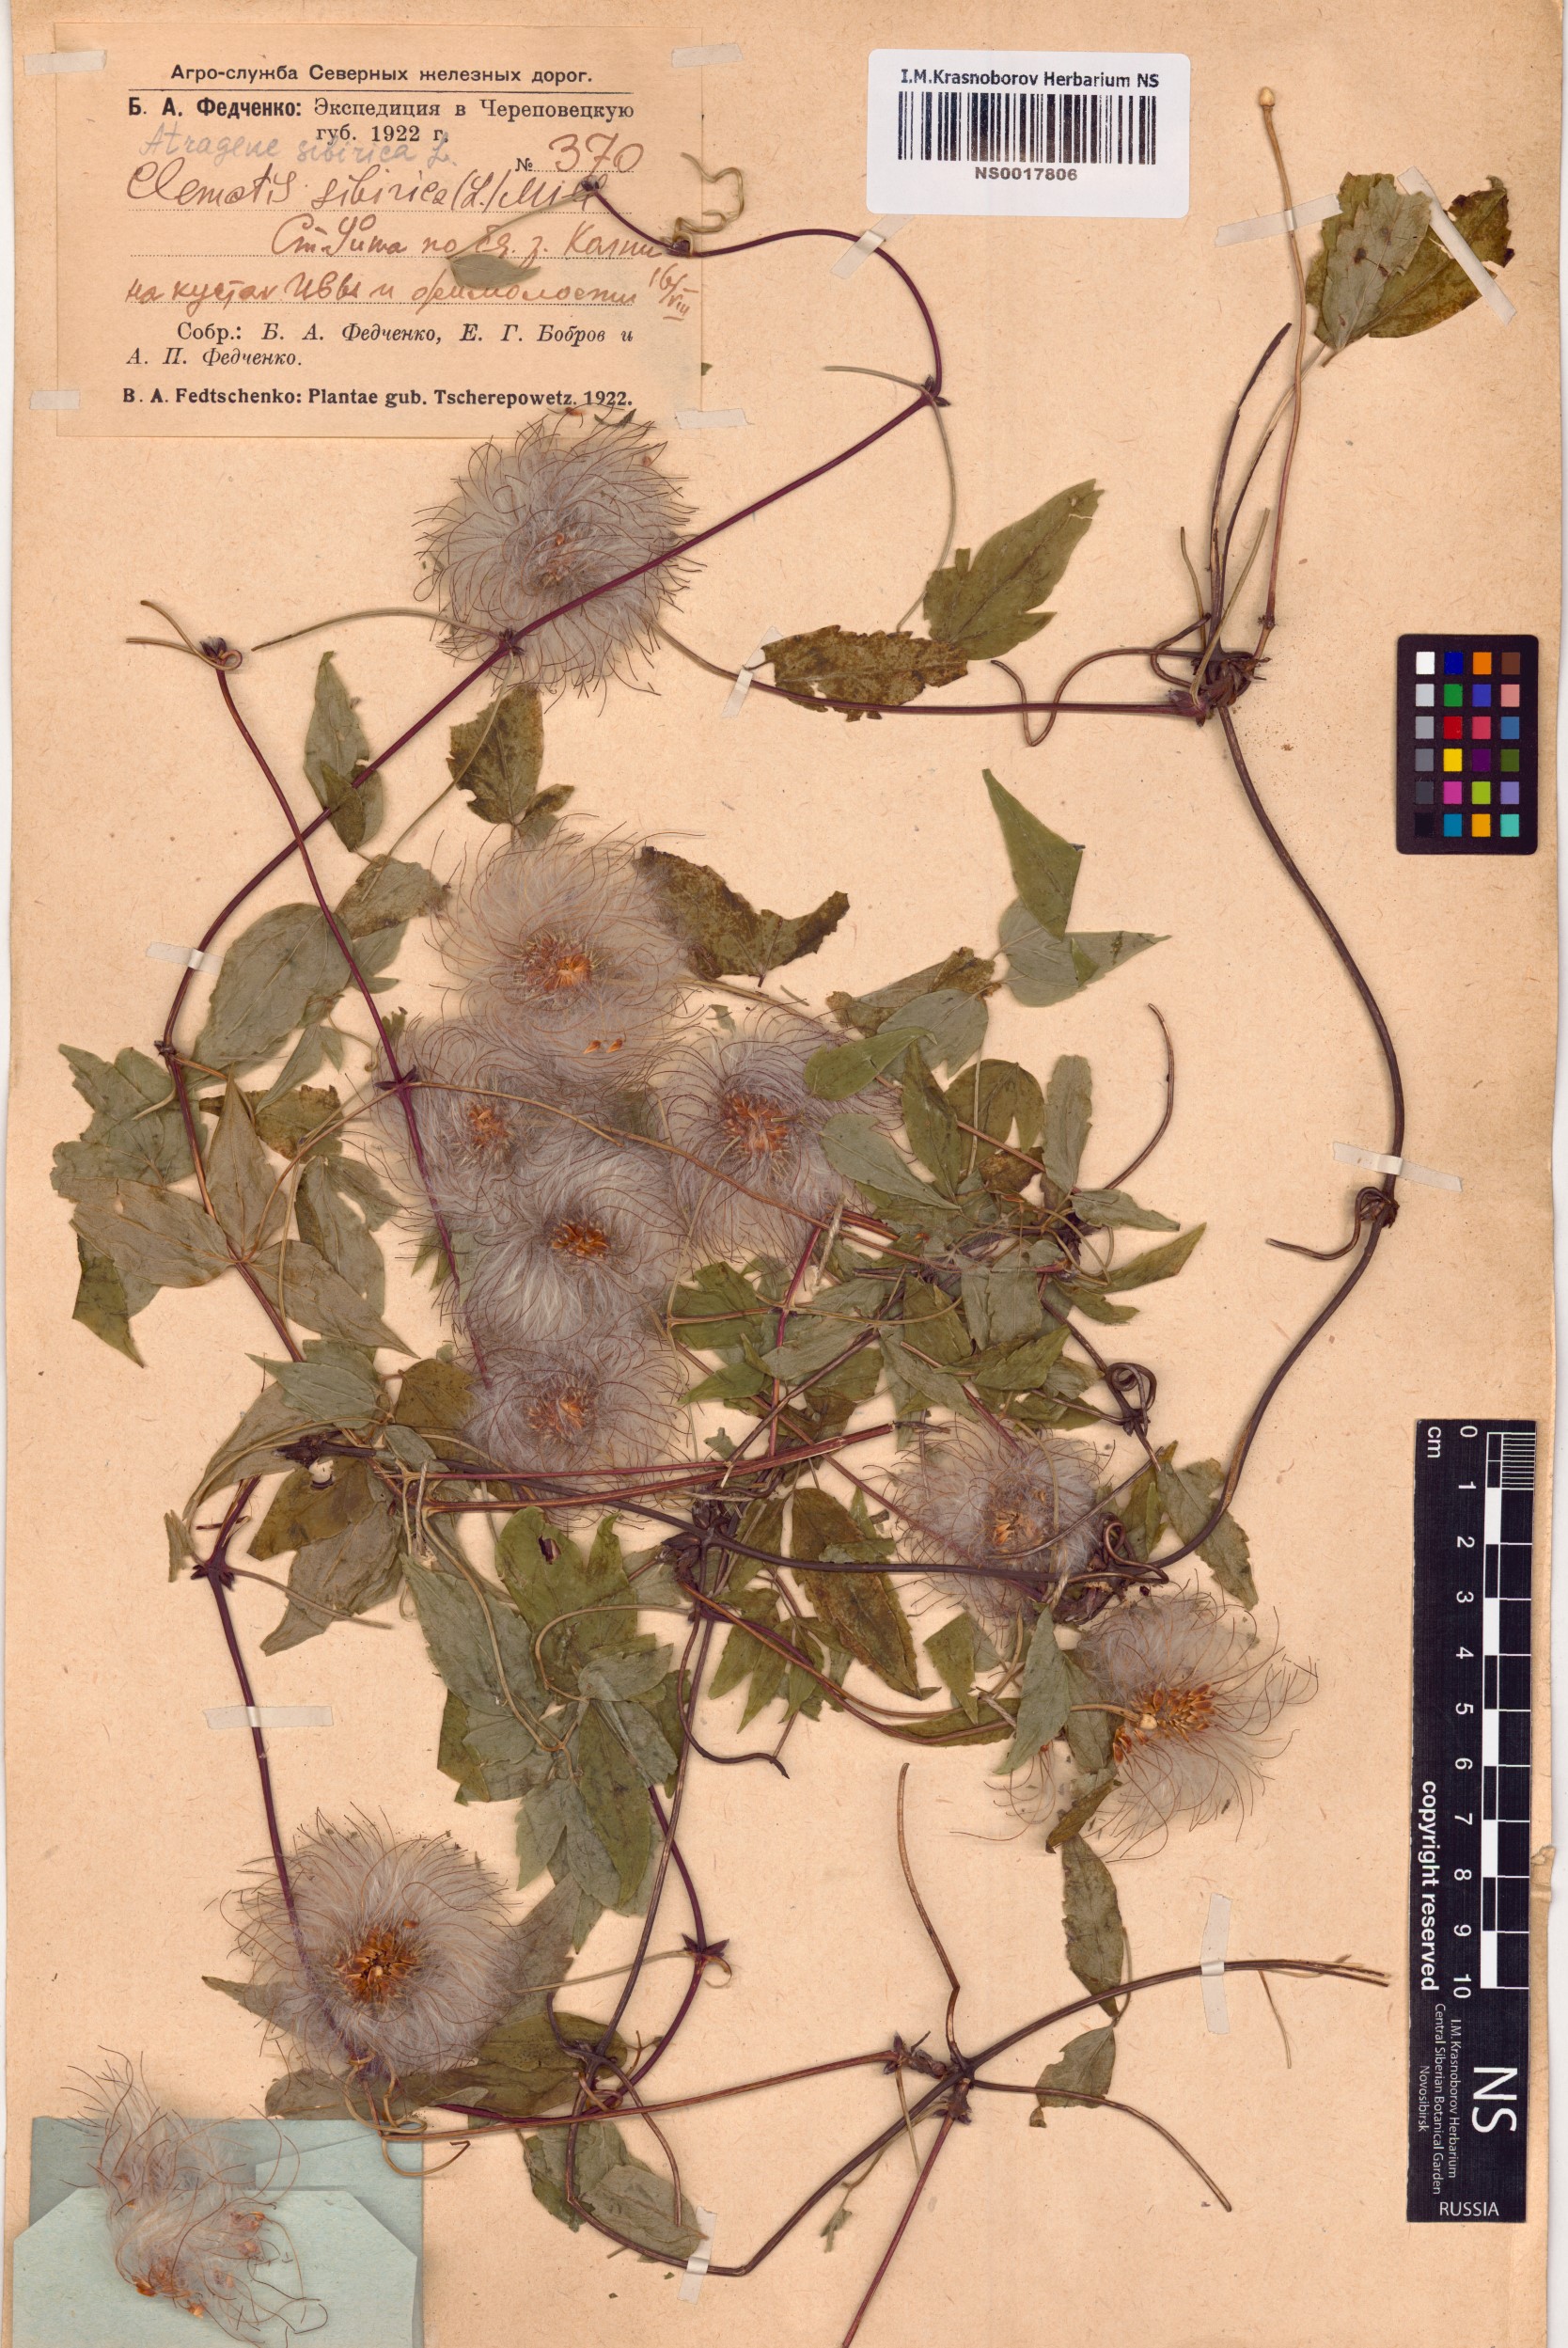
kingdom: Plantae
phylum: Tracheophyta
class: Magnoliopsida
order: Ranunculales
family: Ranunculaceae
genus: Clematis
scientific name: Clematis sibirica
